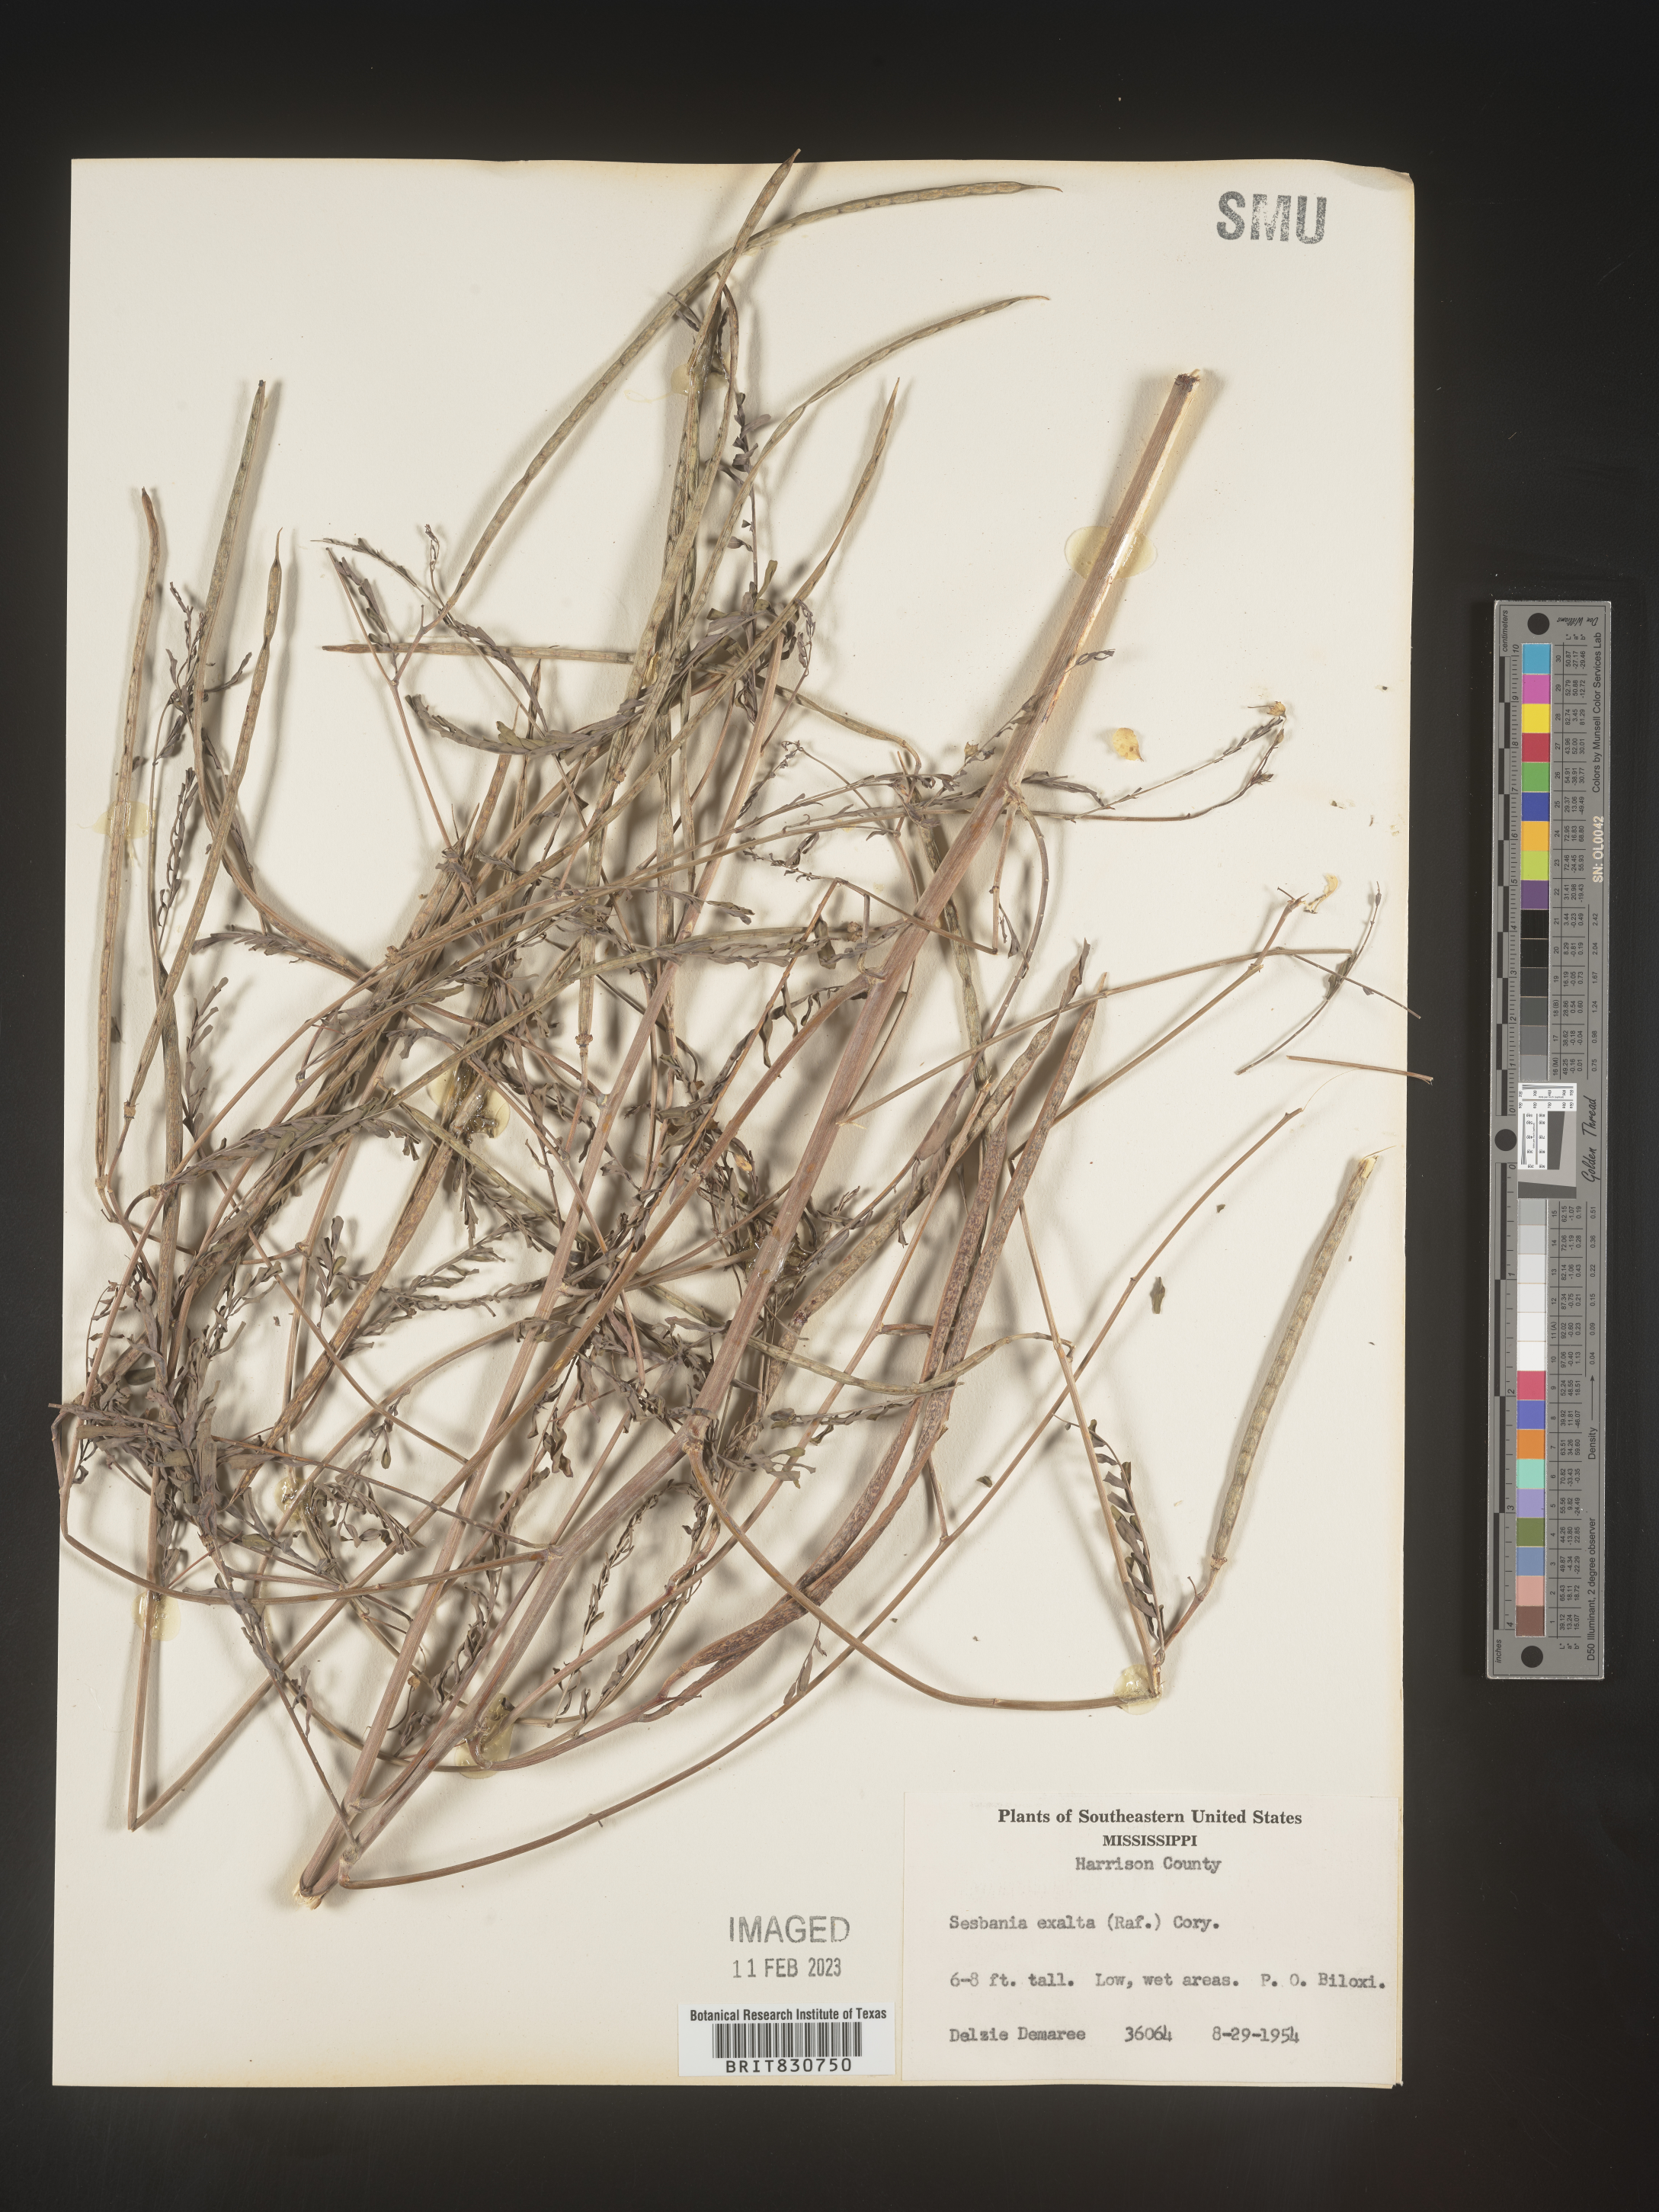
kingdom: Plantae
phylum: Tracheophyta
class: Magnoliopsida
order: Fabales
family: Fabaceae
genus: Sesbania
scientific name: Sesbania vesicaria
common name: Bagpod
